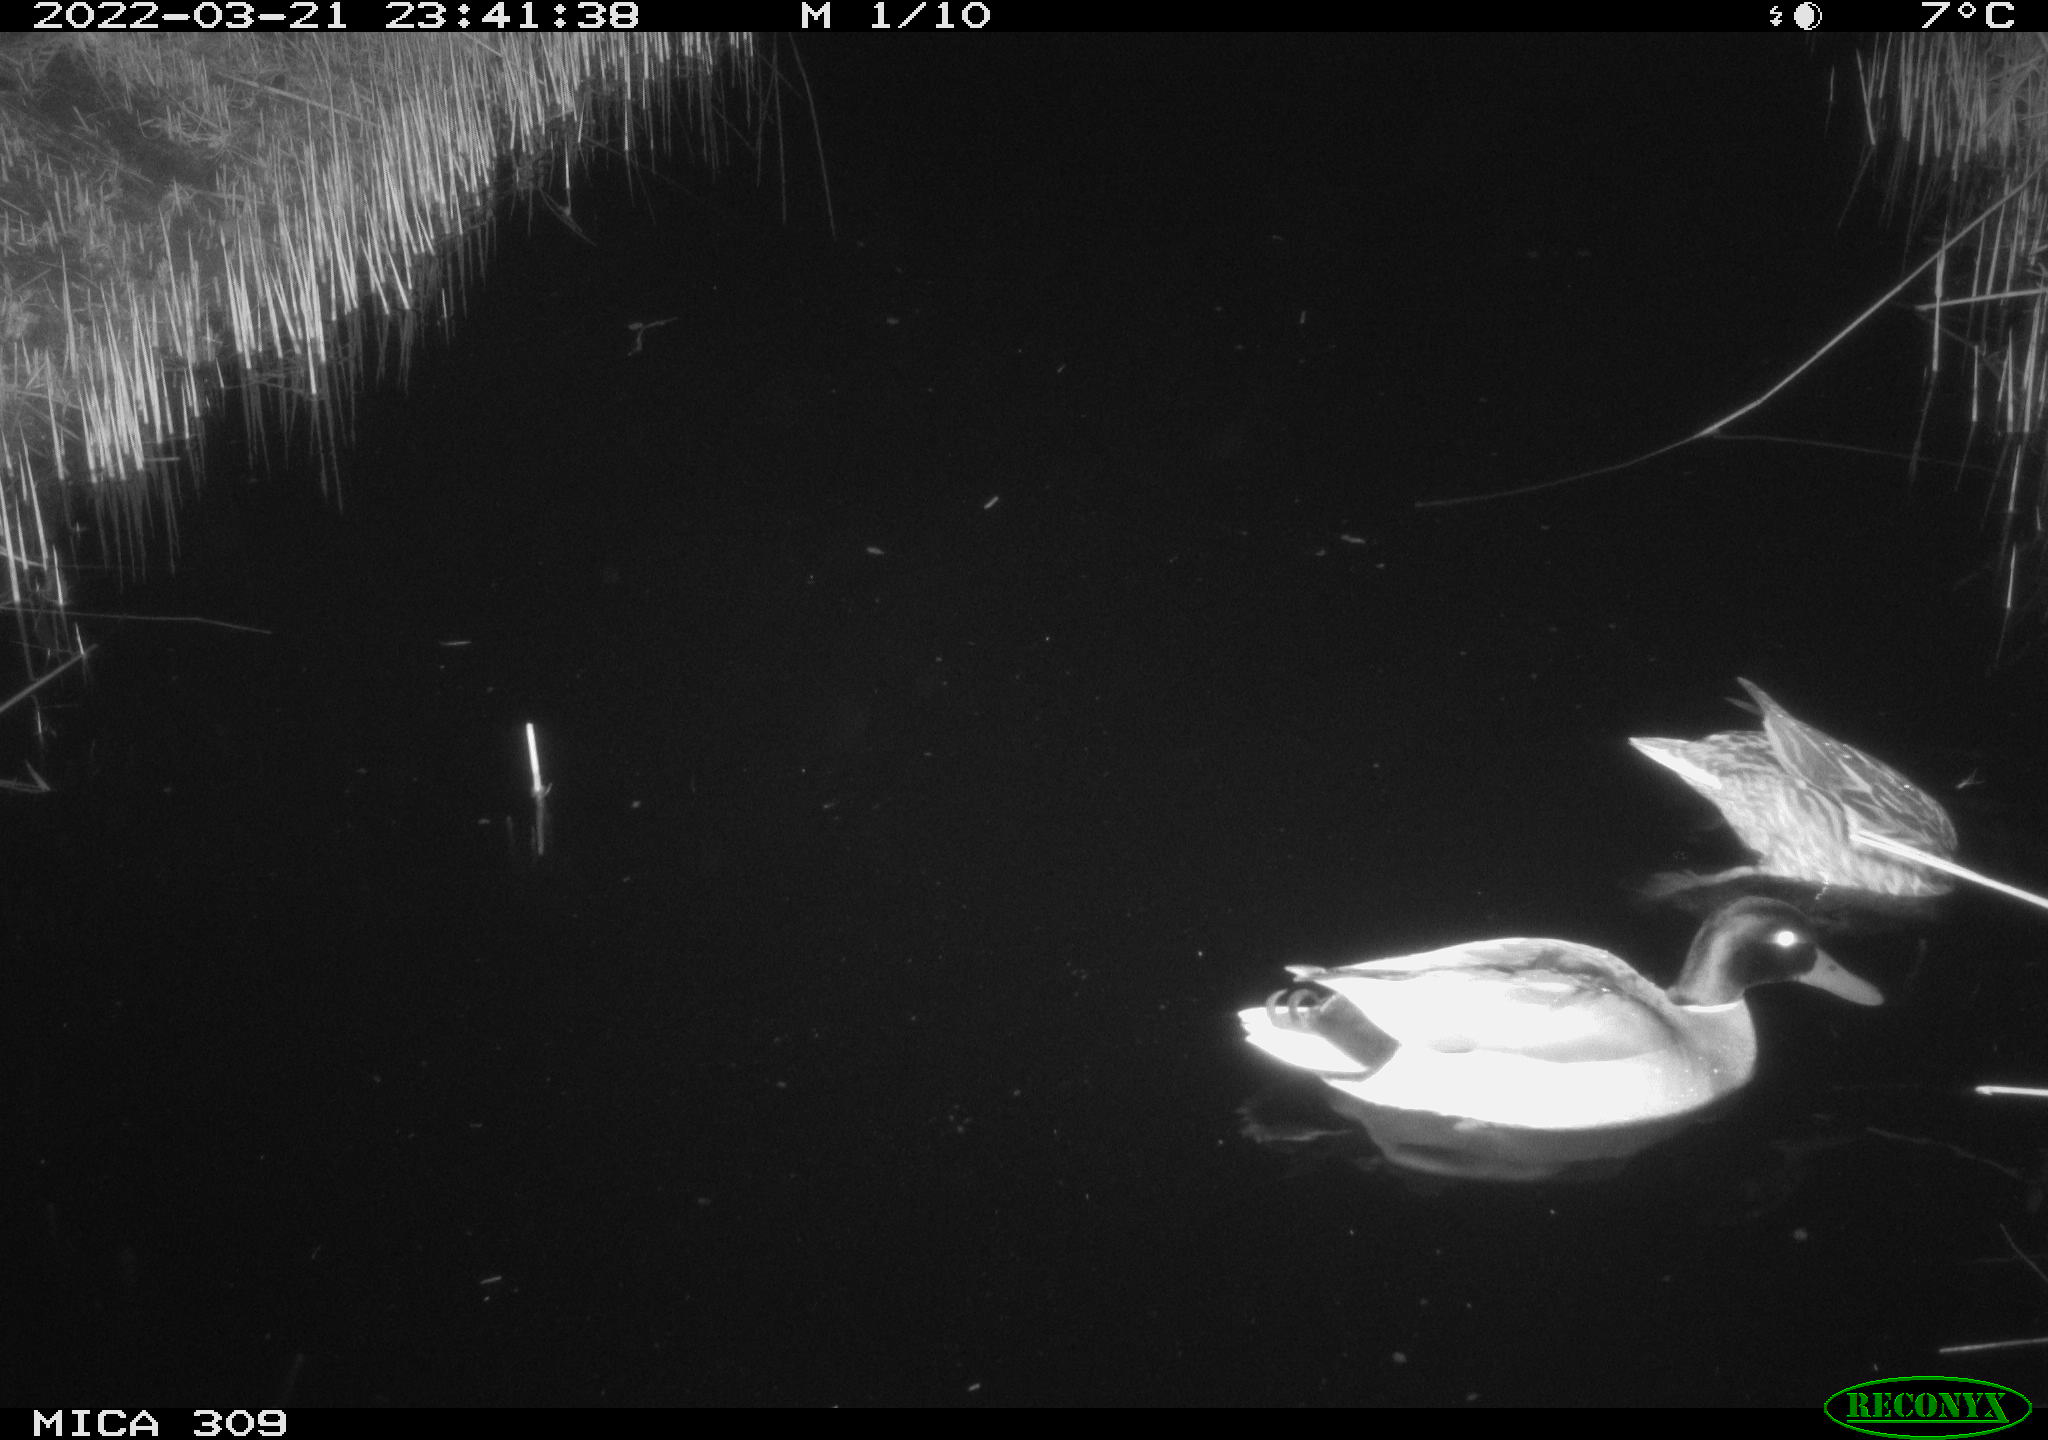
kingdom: Animalia
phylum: Chordata
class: Aves
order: Anseriformes
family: Anatidae
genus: Anas
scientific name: Anas platyrhynchos
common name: Mallard
